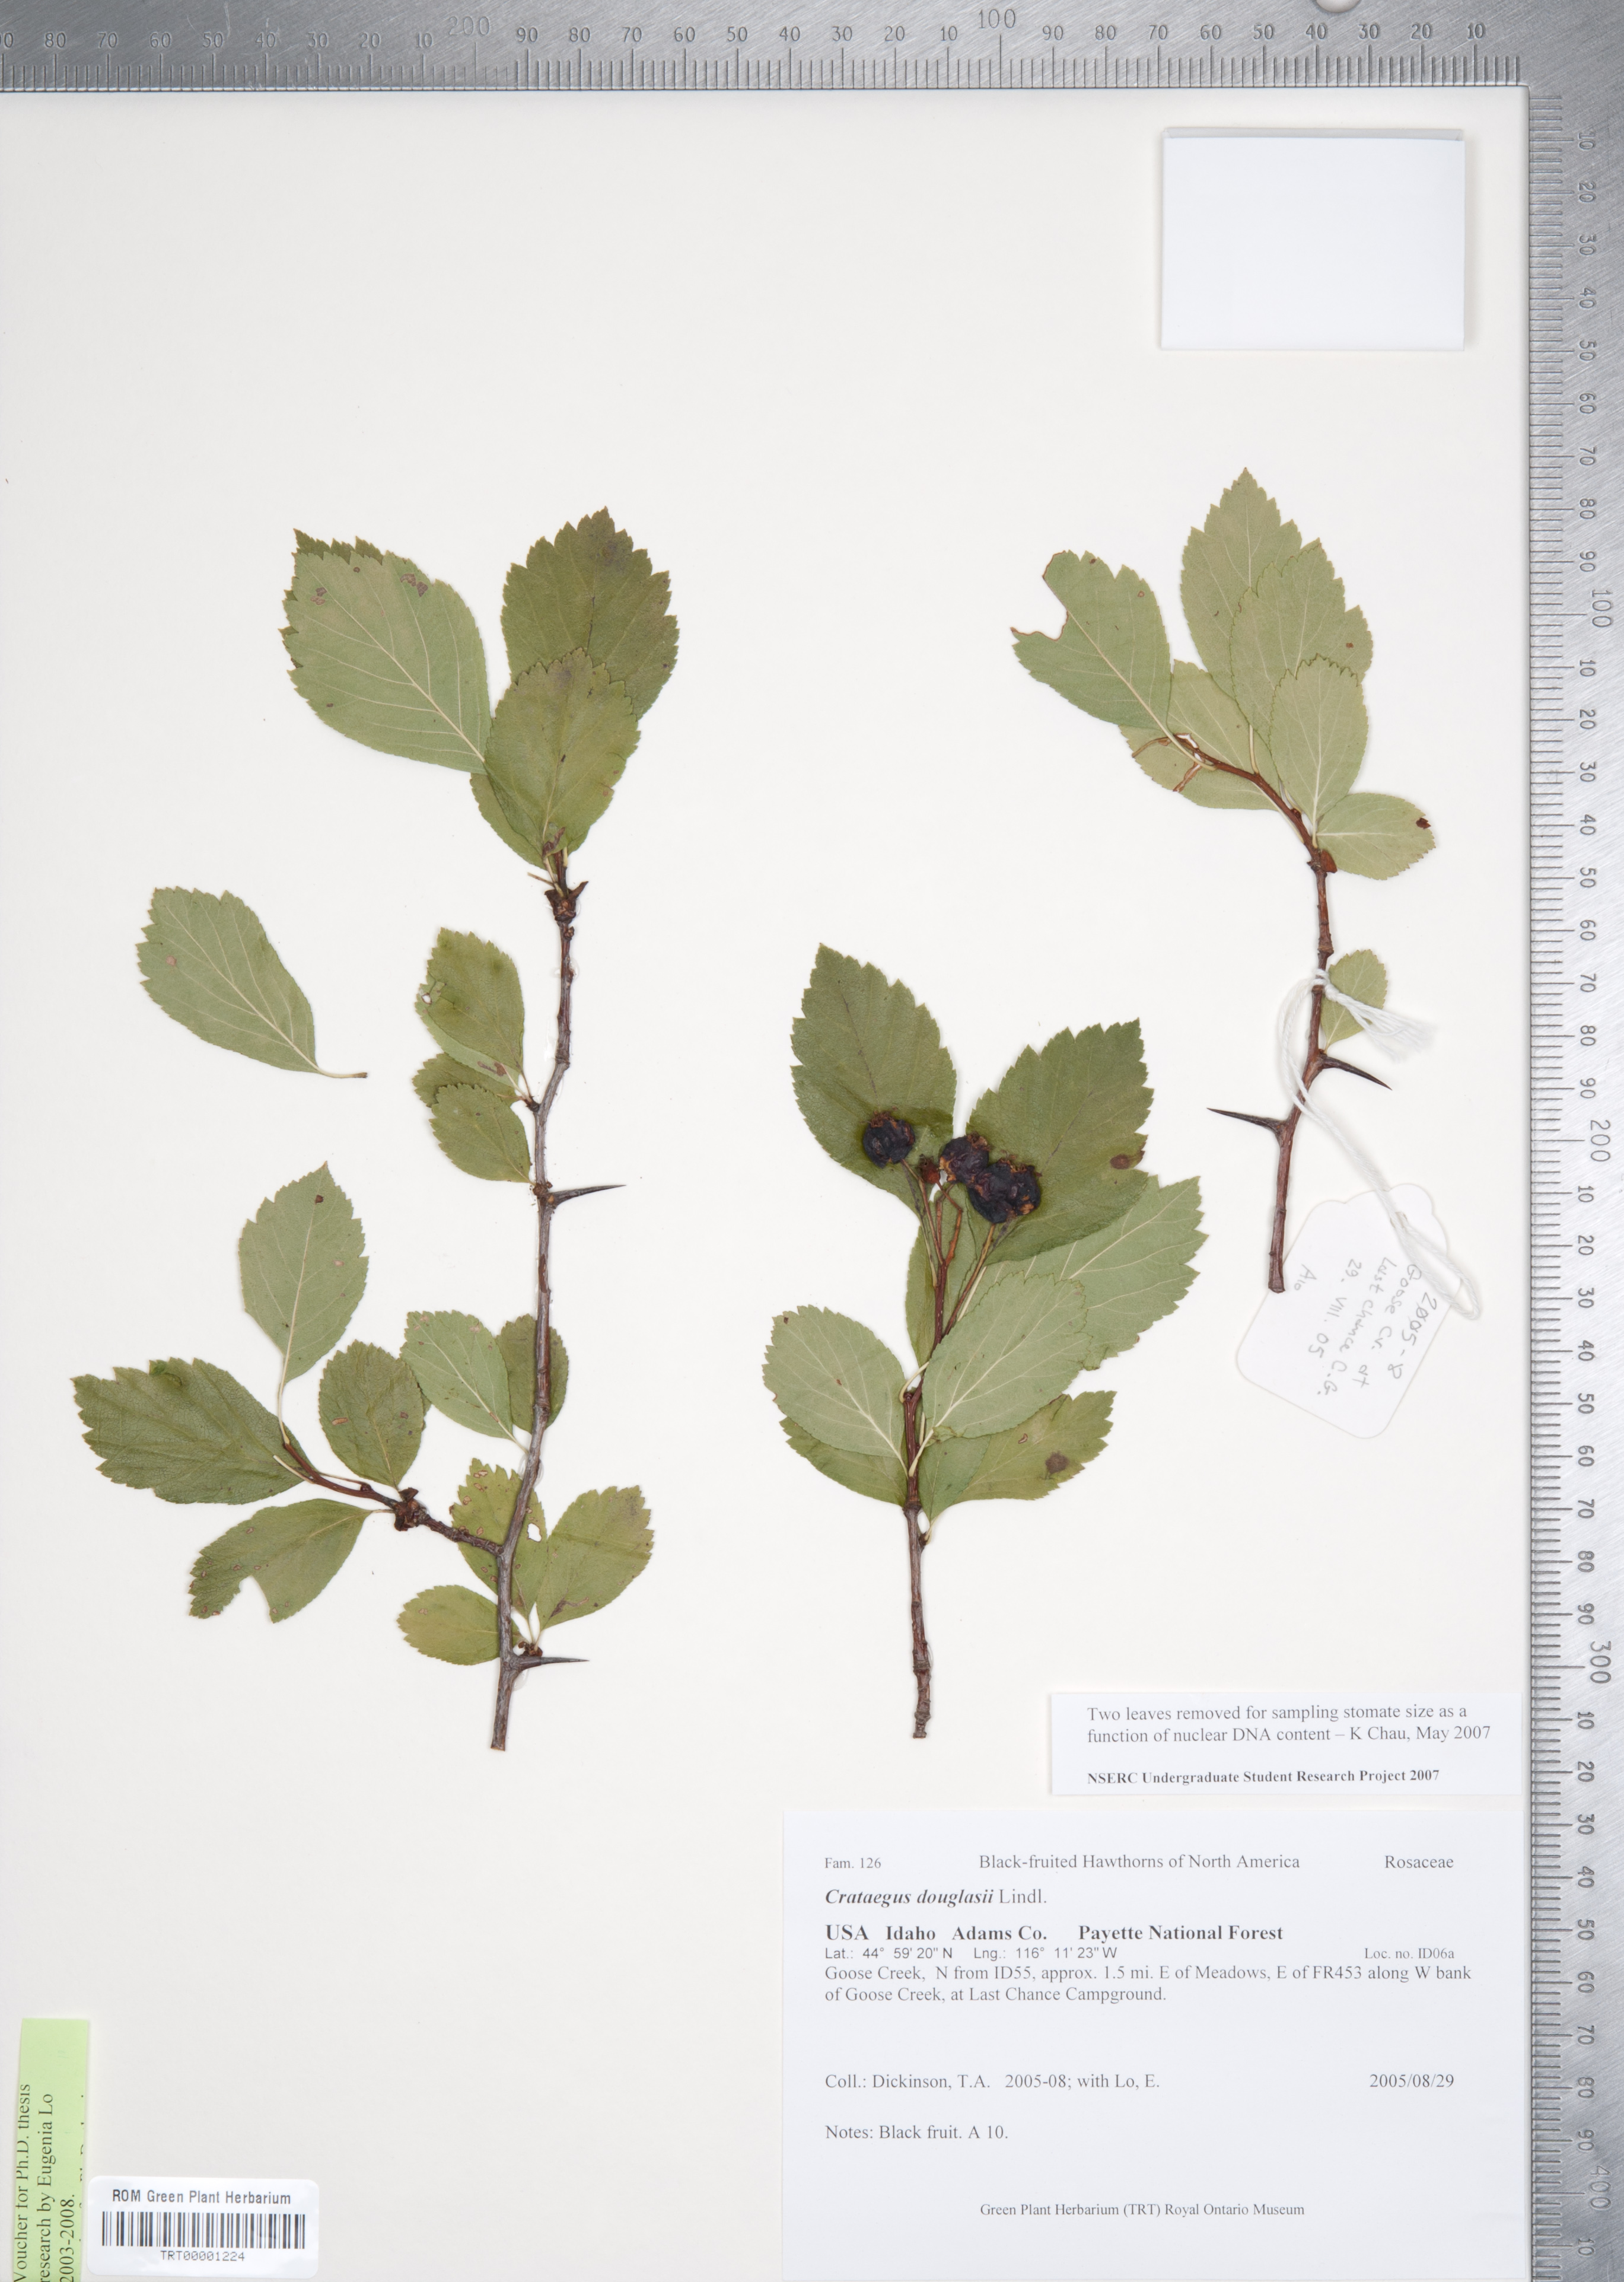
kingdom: Plantae
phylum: Tracheophyta
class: Magnoliopsida
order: Rosales
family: Rosaceae
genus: Crataegus
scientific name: Crataegus douglasii
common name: Black hawthorn
